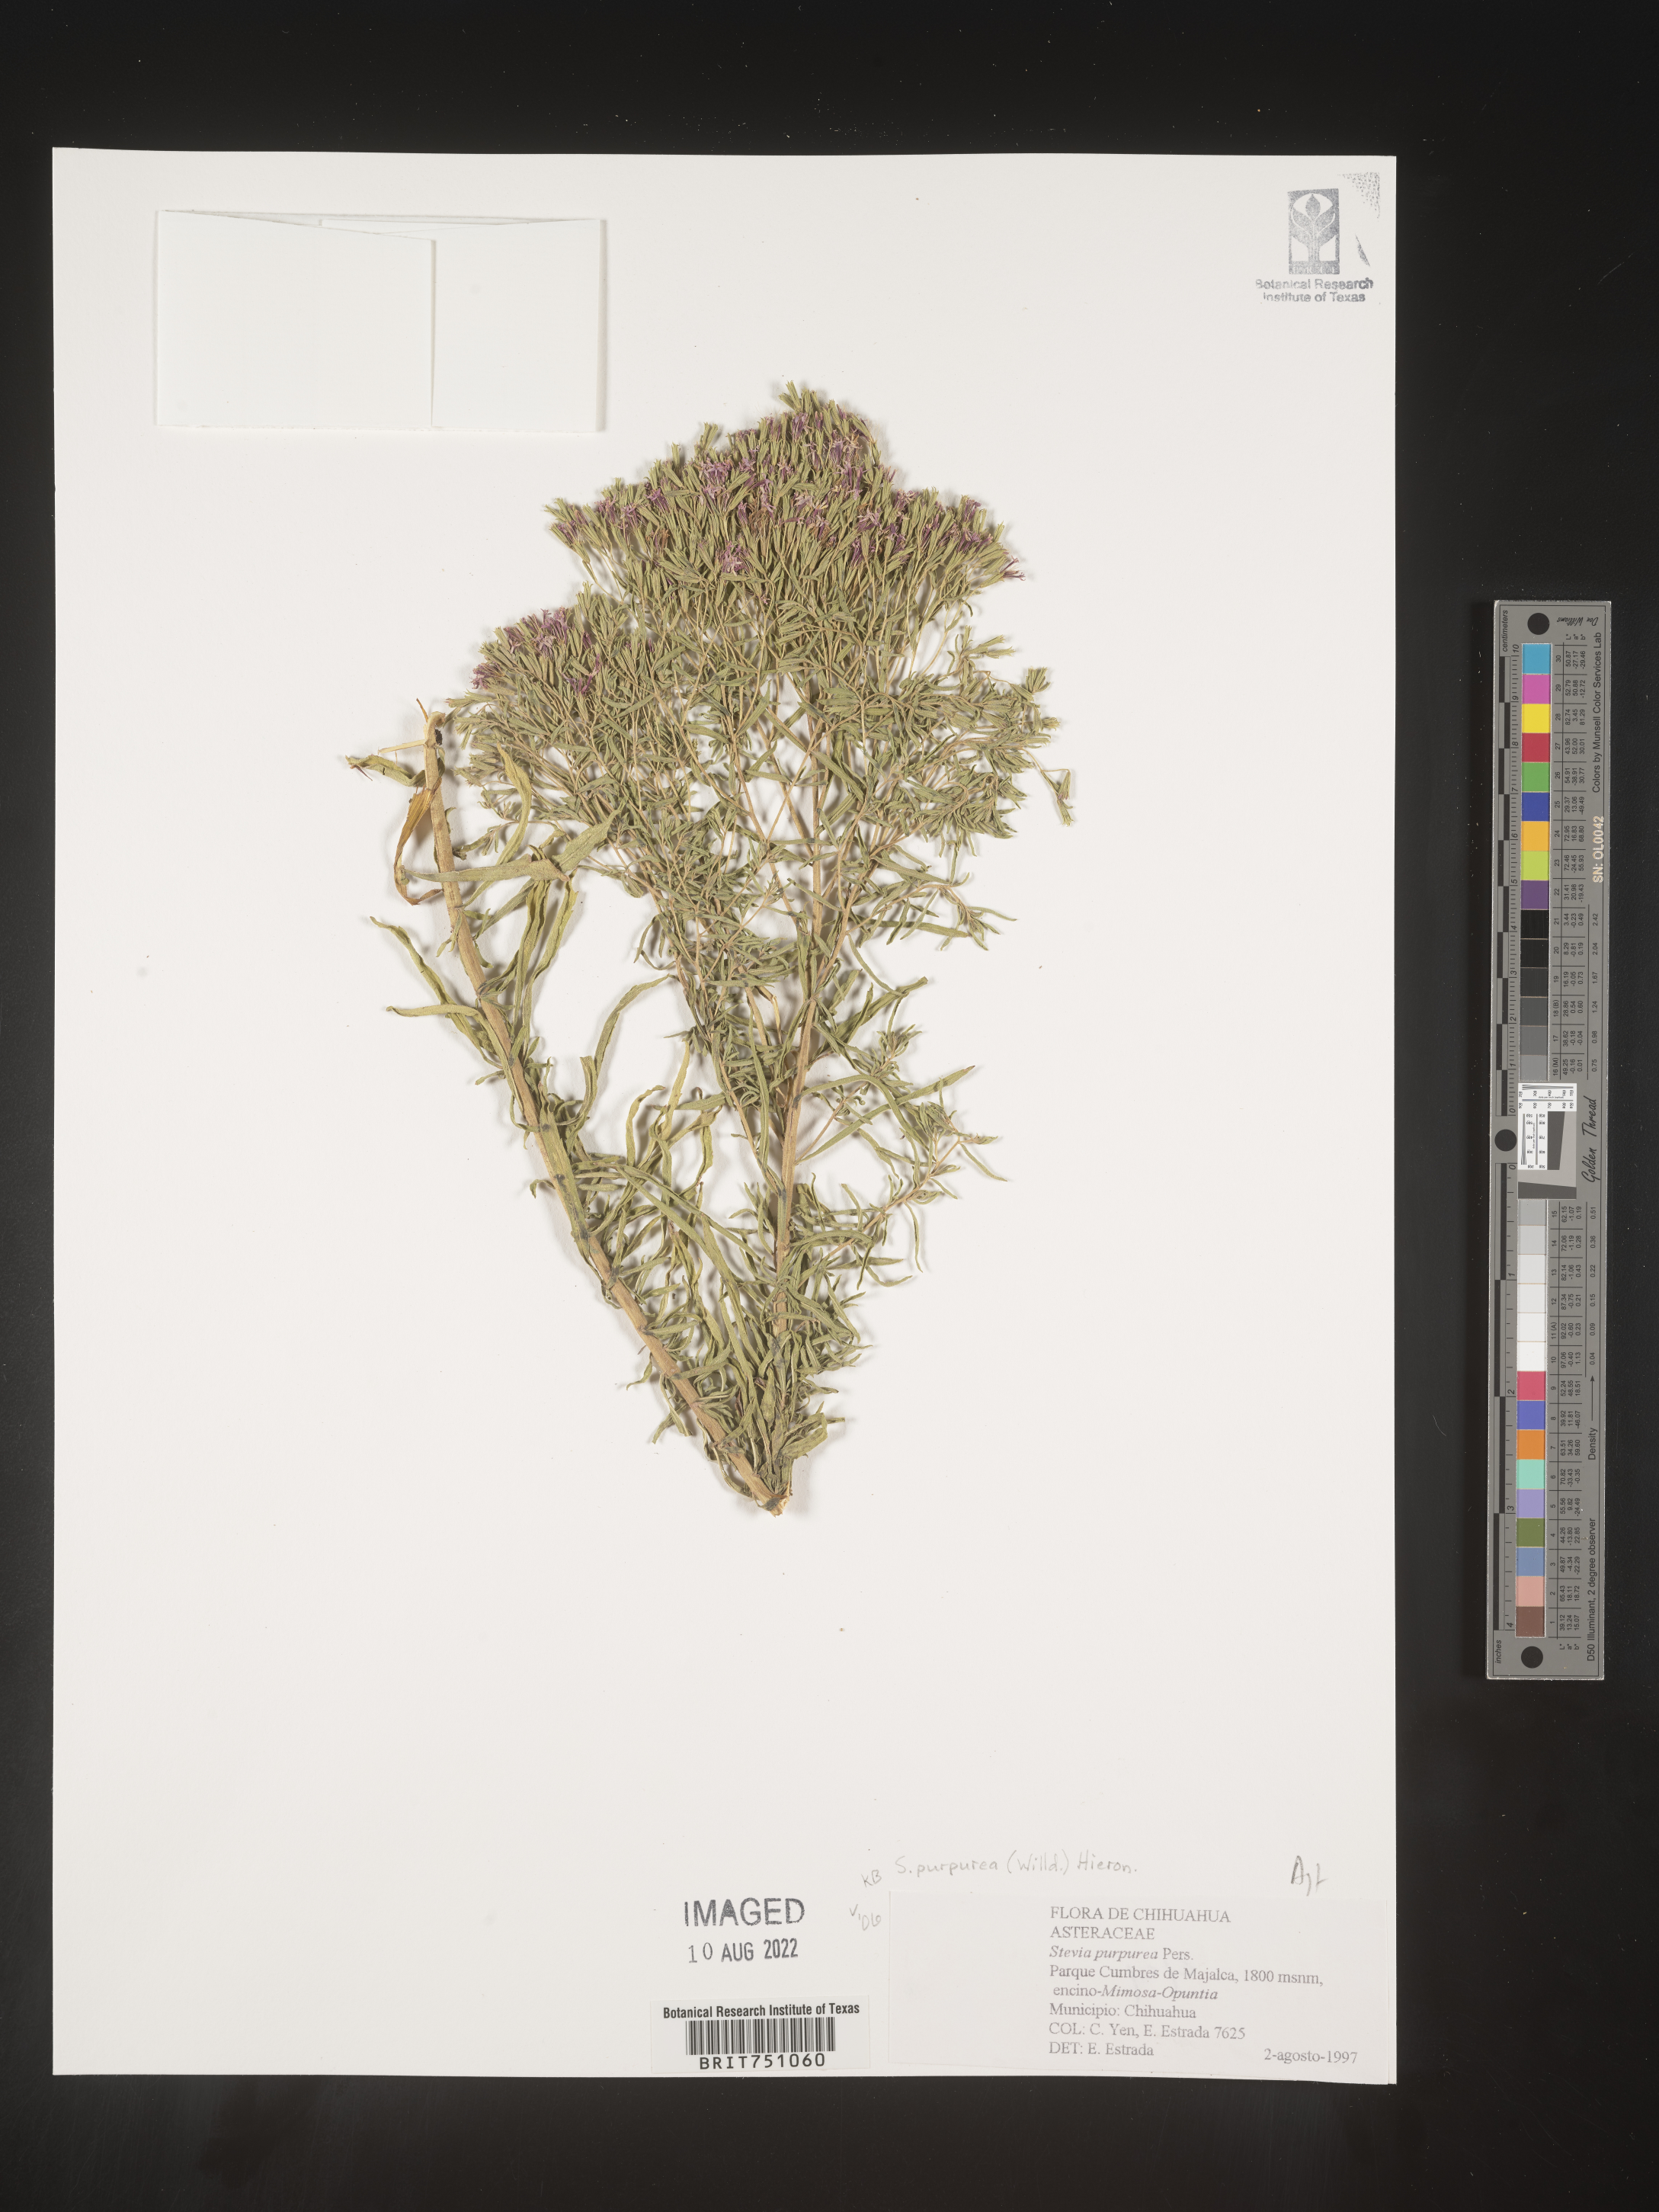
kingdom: Plantae
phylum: Tracheophyta
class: Magnoliopsida
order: Asterales
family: Asteraceae
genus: Stevia
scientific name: Stevia
